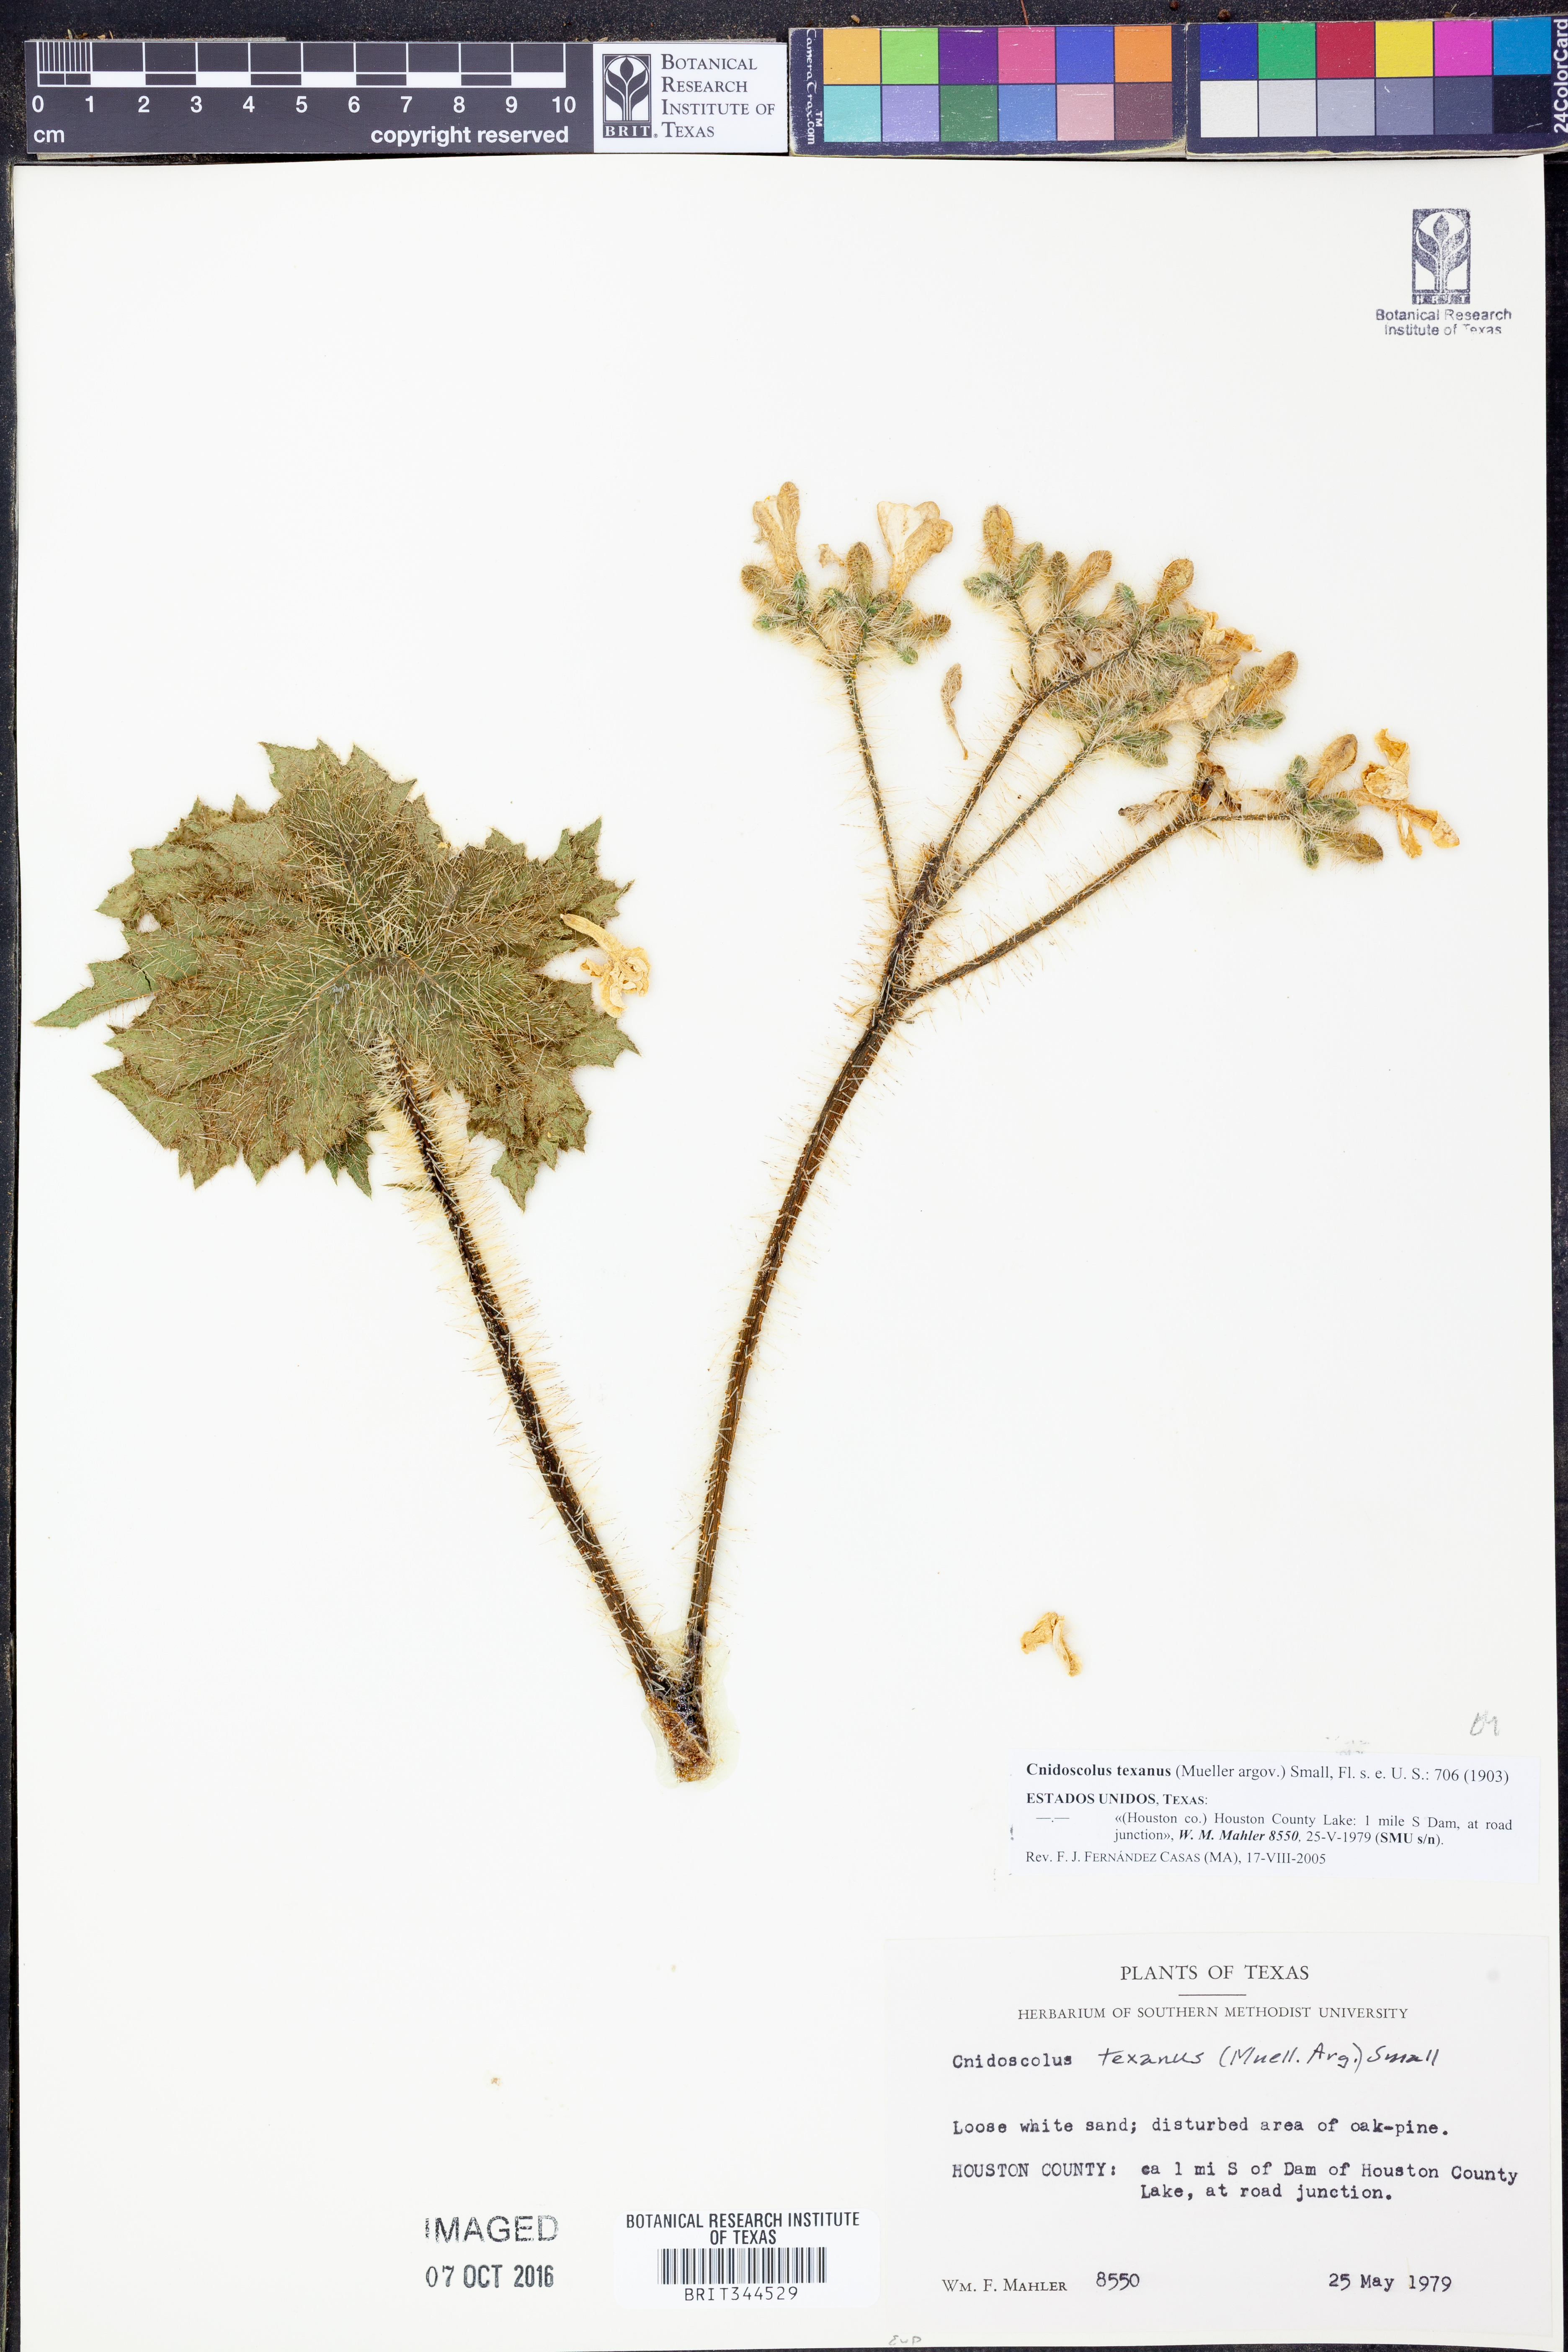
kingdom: Plantae
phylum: Tracheophyta
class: Magnoliopsida
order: Malpighiales
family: Euphorbiaceae
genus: Cnidoscolus
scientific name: Cnidoscolus texanus
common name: Texas bull-nettle
